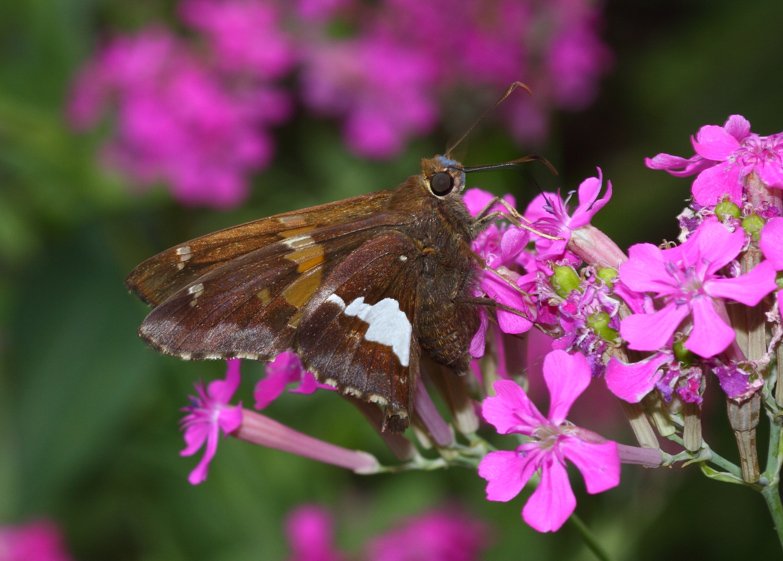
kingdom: Animalia
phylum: Arthropoda
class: Insecta
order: Lepidoptera
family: Hesperiidae
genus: Epargyreus
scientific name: Epargyreus clarus
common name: Silver-spotted Skipper
